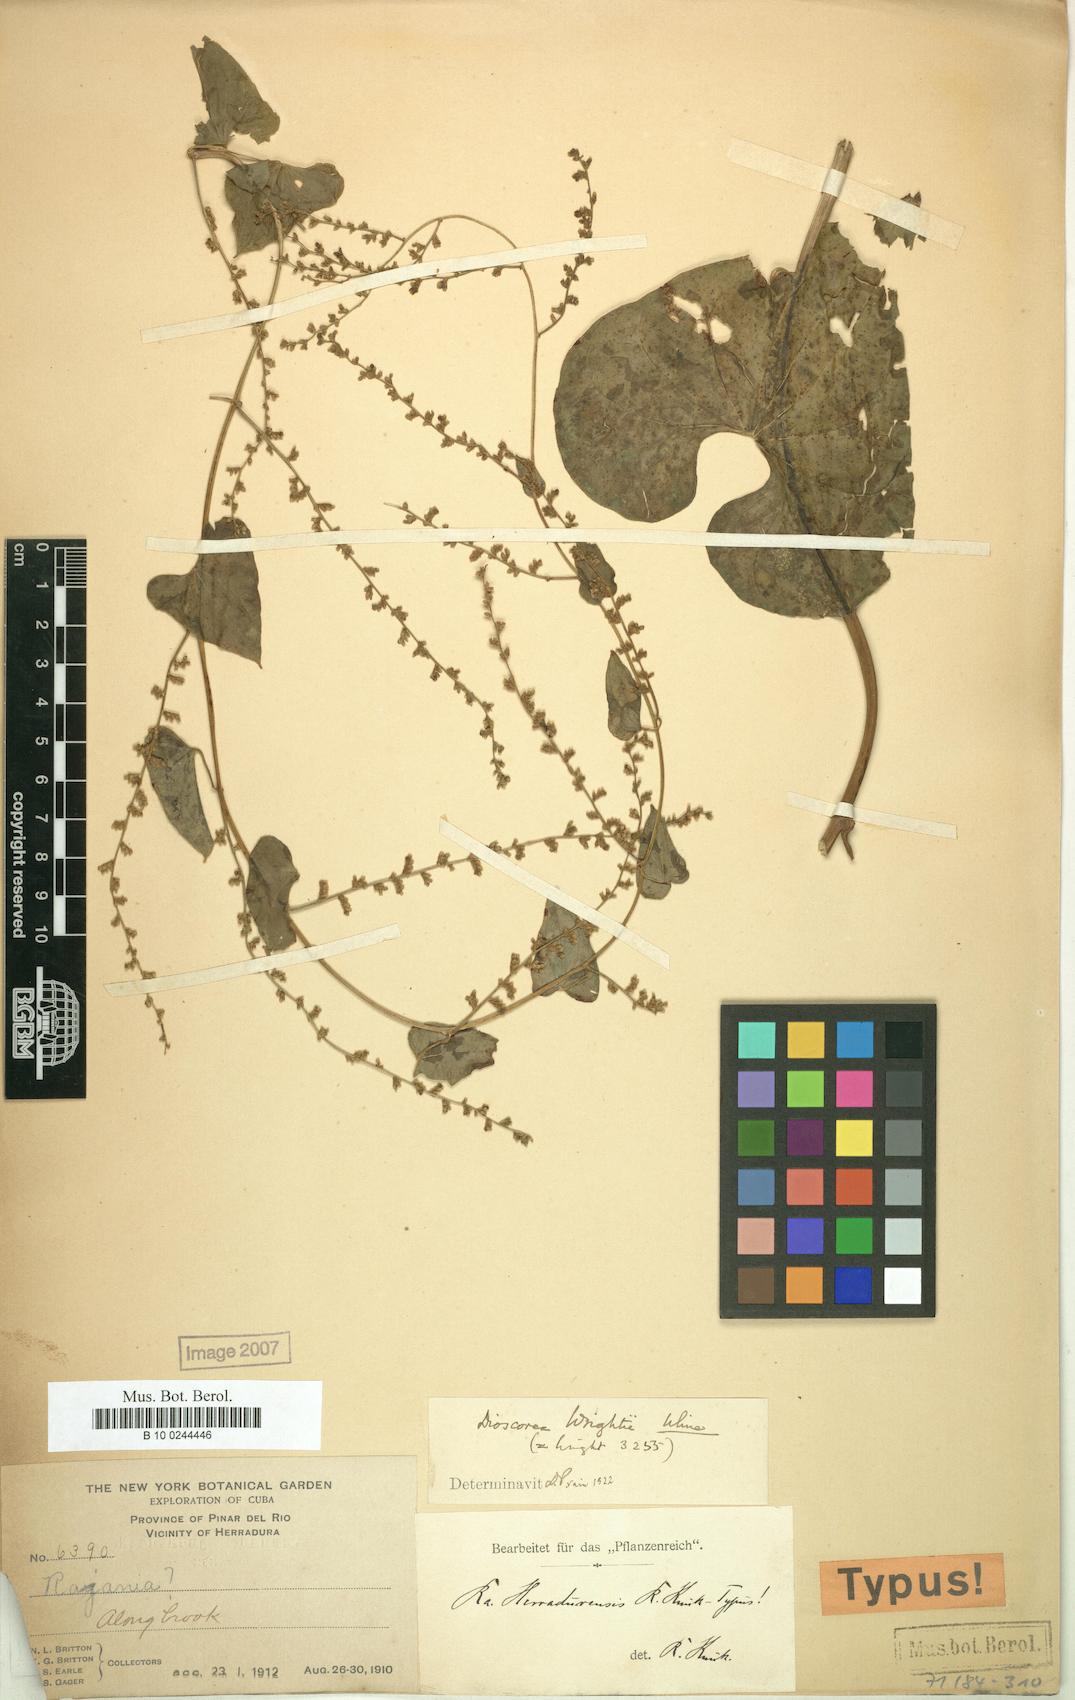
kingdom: Plantae
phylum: Tracheophyta
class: Liliopsida
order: Dioscoreales
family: Dioscoreaceae
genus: Dioscorea
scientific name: Dioscorea wrightii
